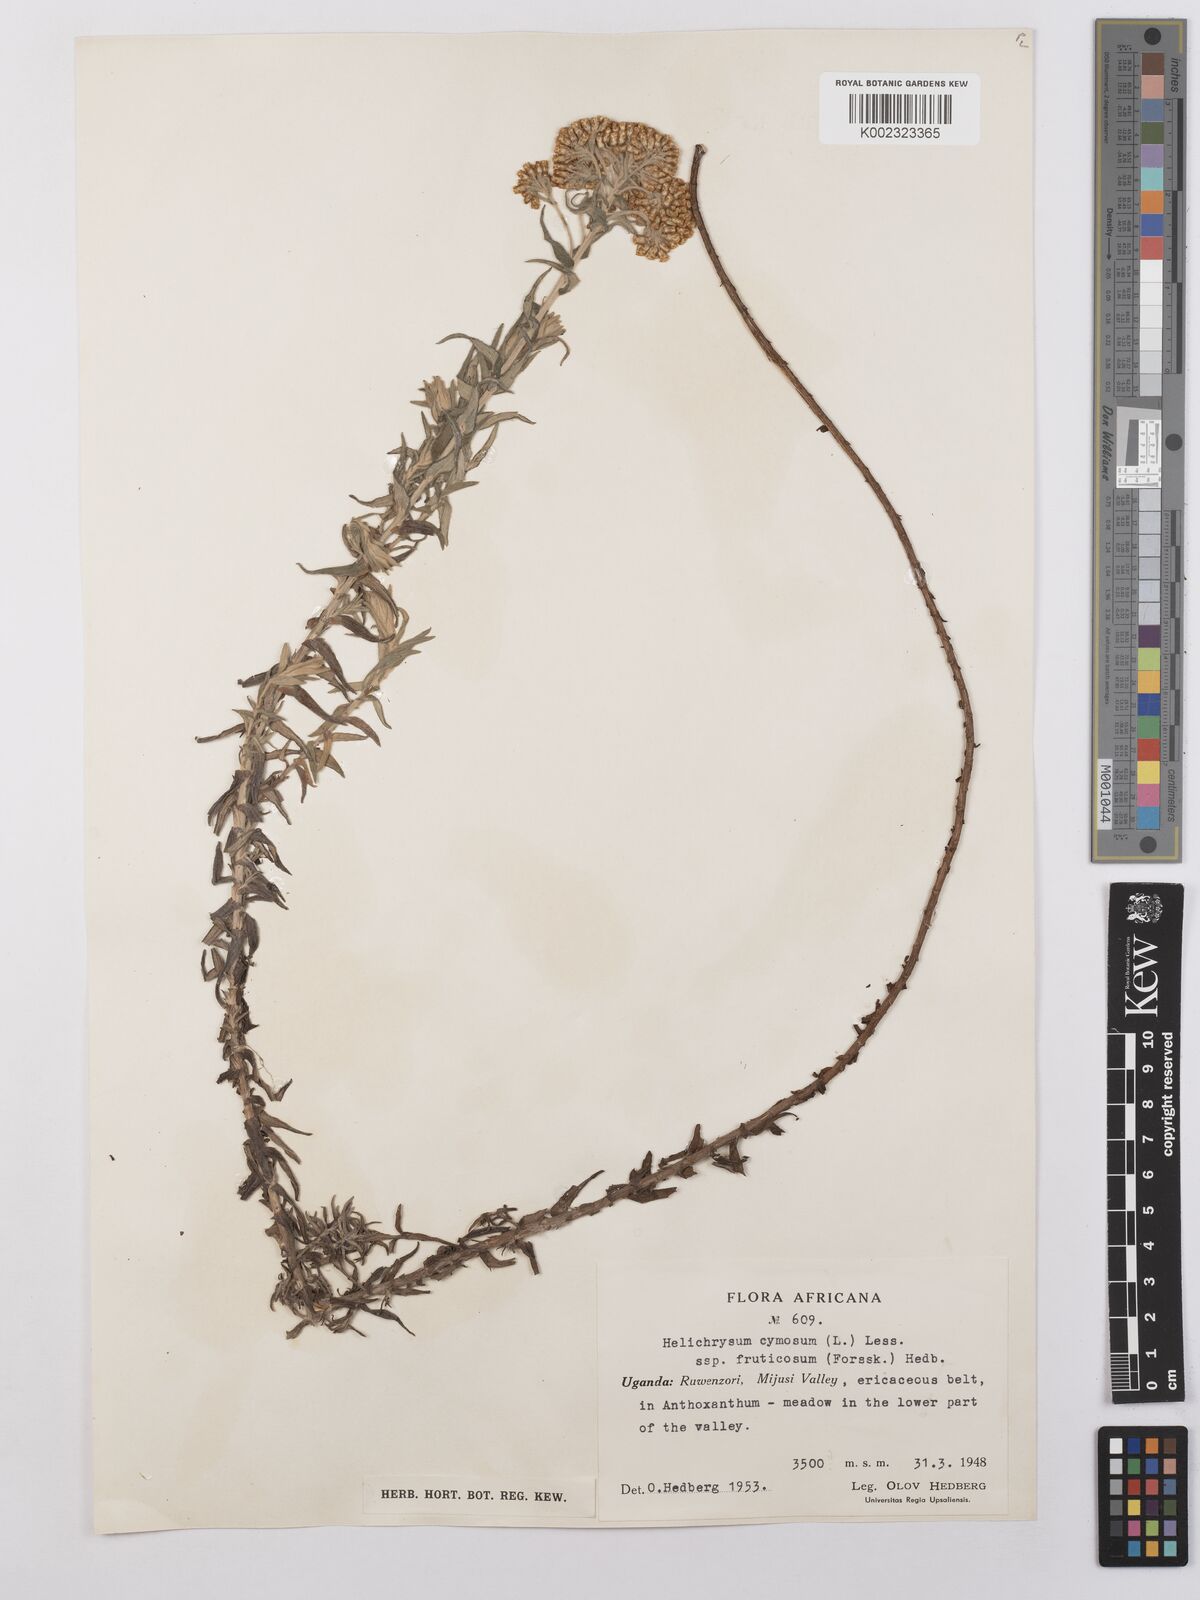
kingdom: Plantae
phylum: Tracheophyta
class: Magnoliopsida
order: Asterales
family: Asteraceae
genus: Helichrysum
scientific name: Helichrysum forskahlii
